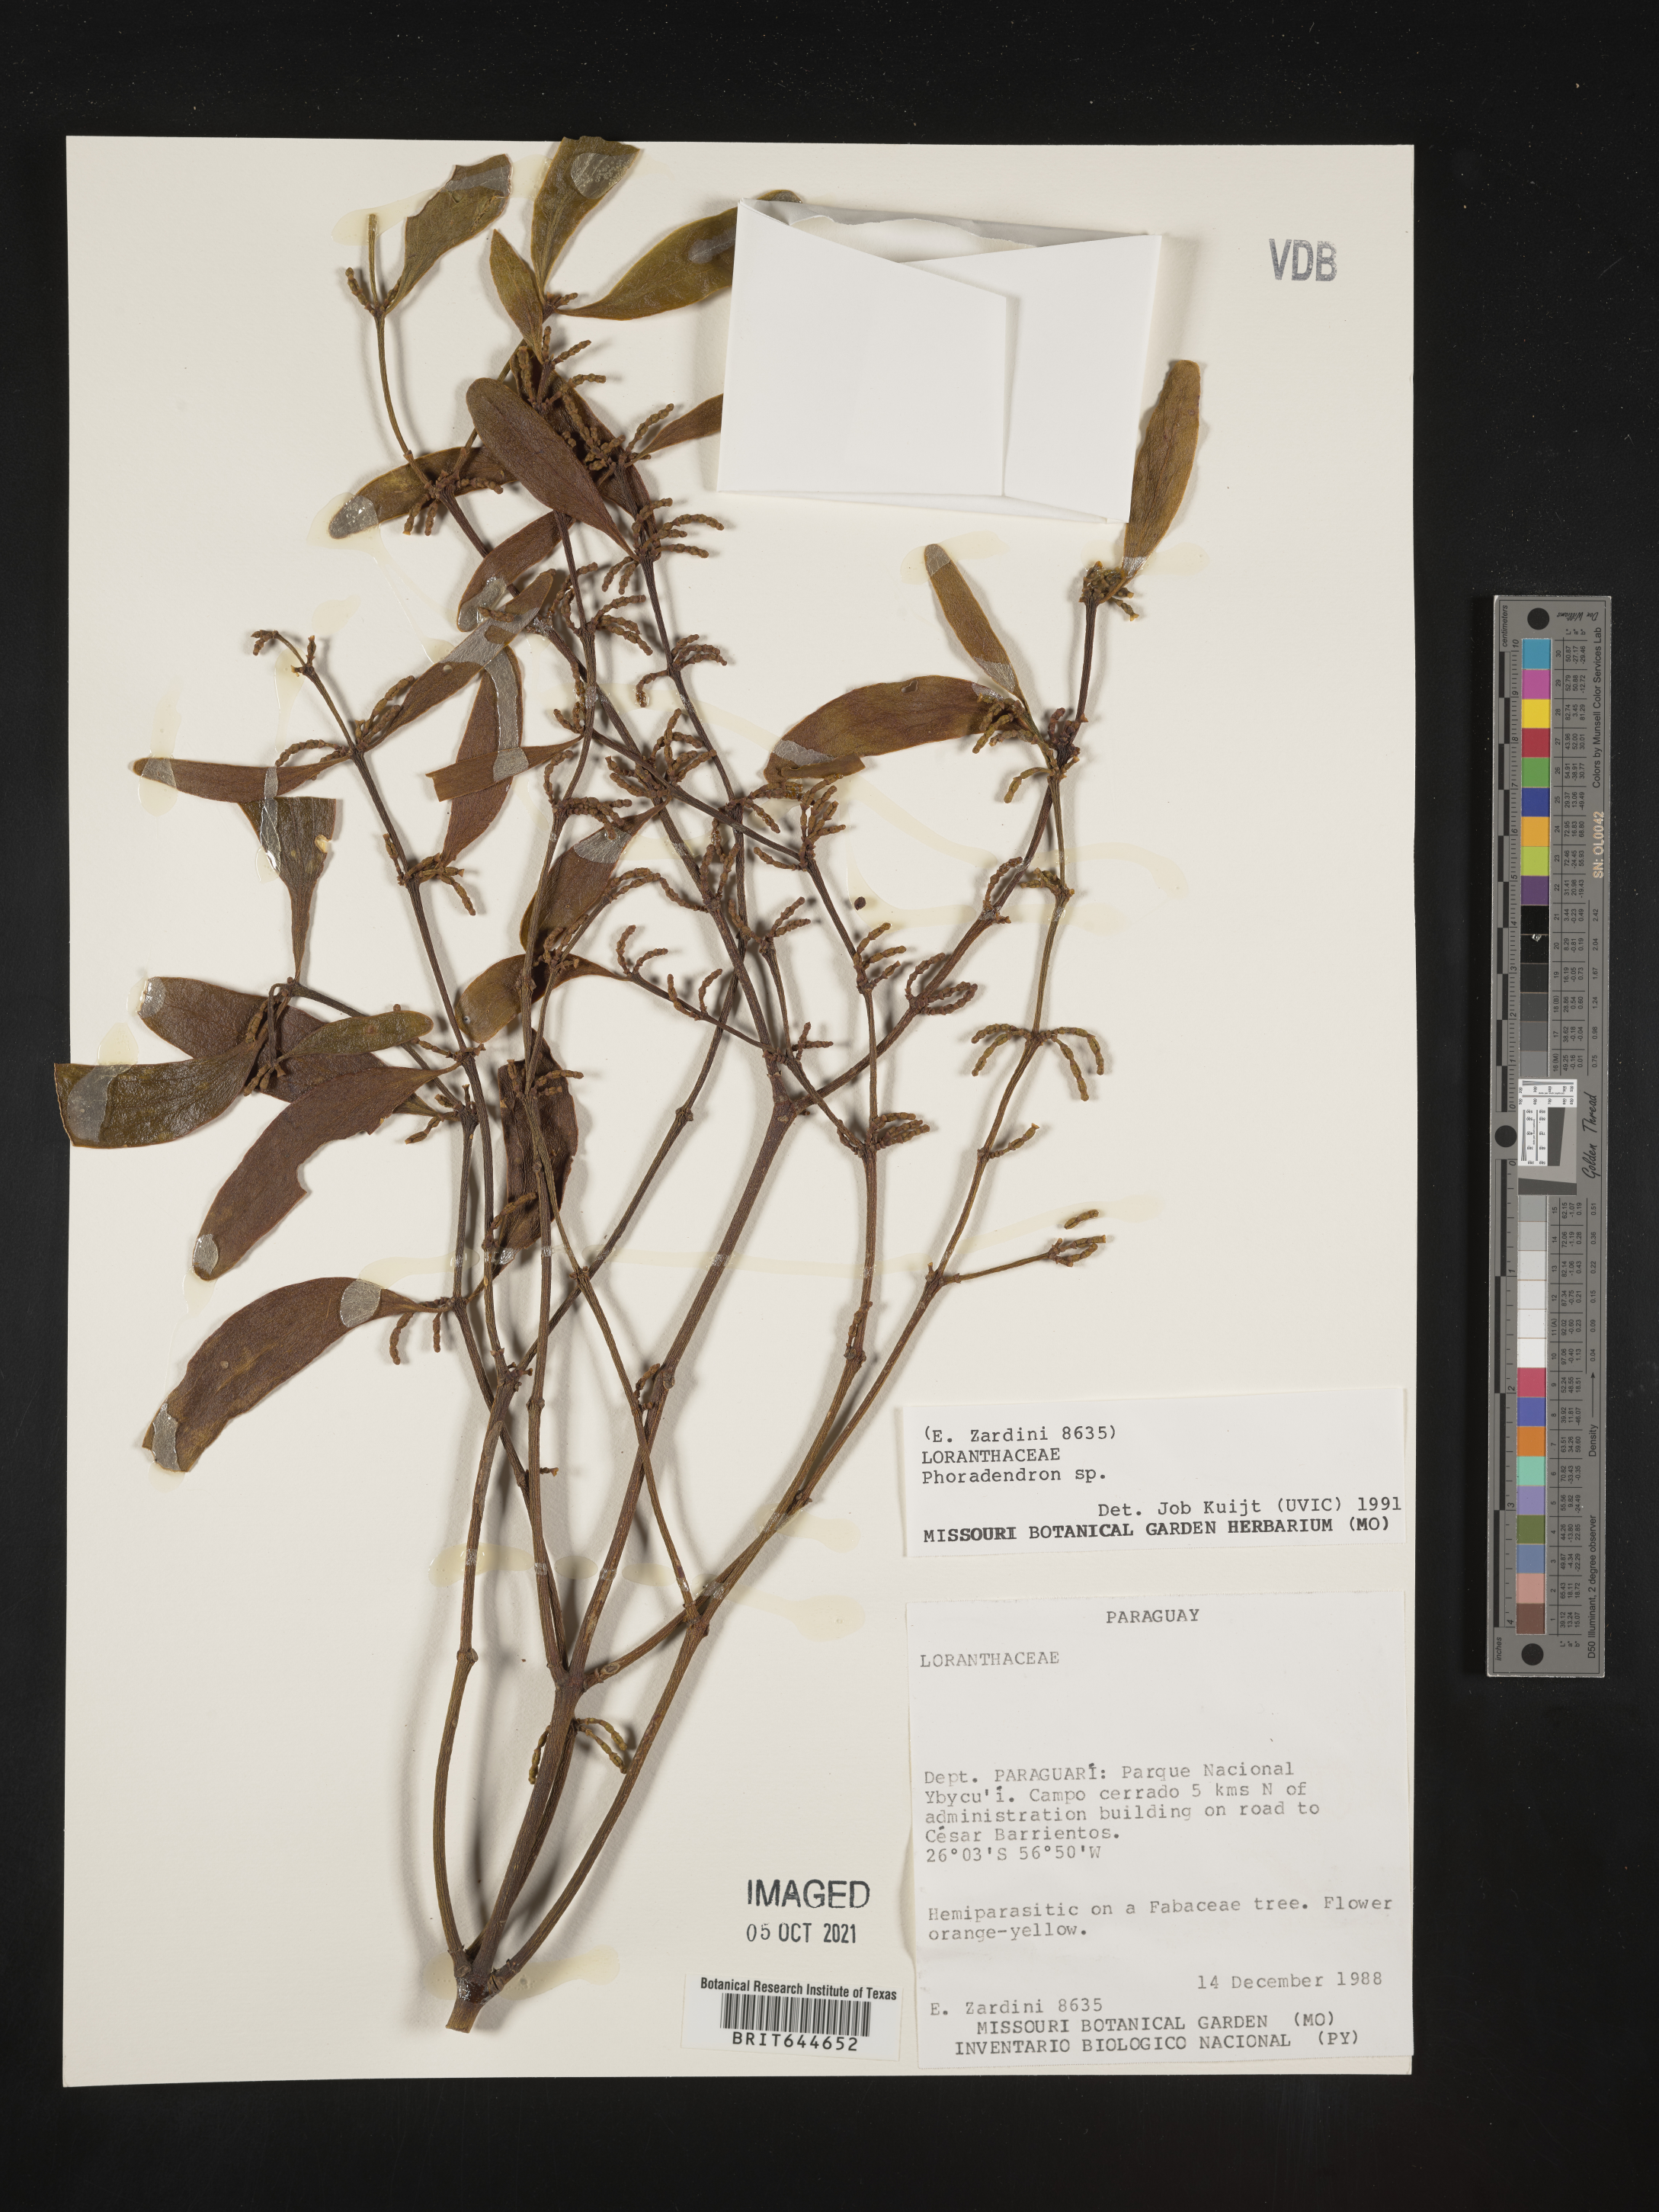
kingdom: Plantae
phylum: Tracheophyta
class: Magnoliopsida
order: Santalales
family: Viscaceae
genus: Phoradendron
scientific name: Phoradendron
